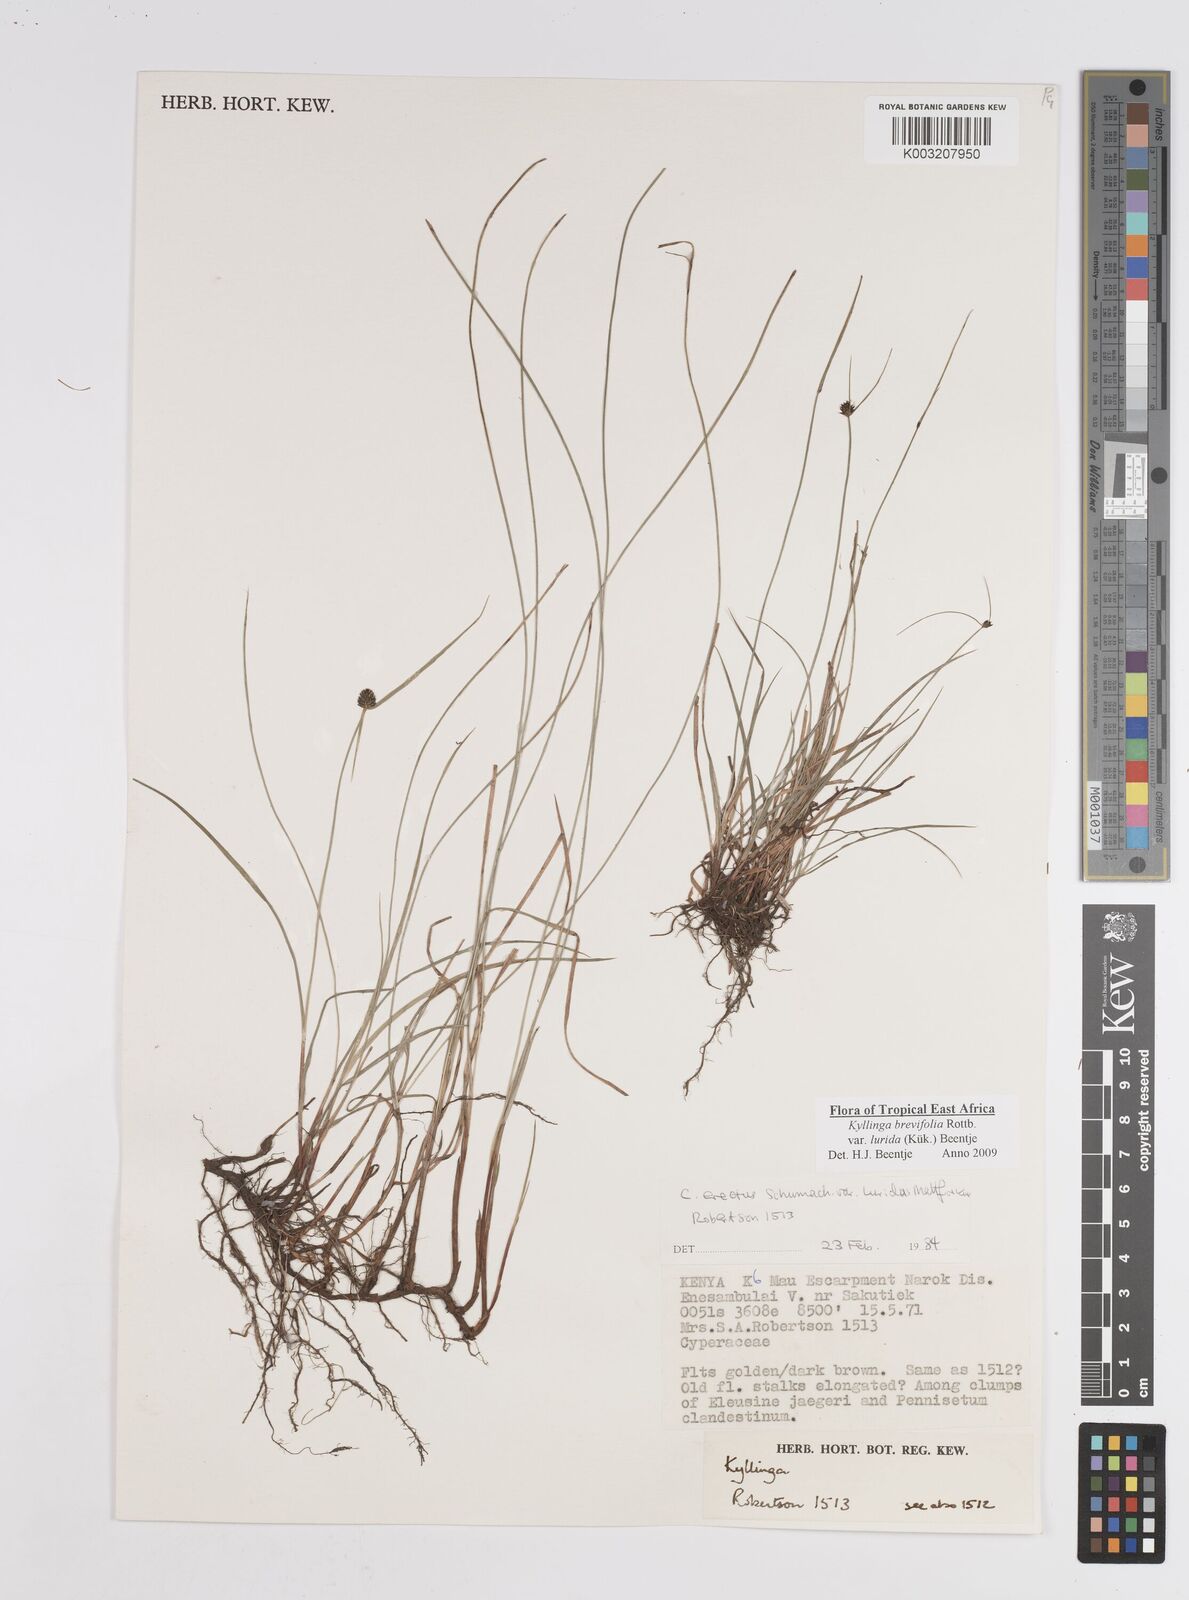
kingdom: Plantae
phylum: Tracheophyta
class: Liliopsida
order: Poales
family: Cyperaceae
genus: Cyperus
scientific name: Cyperus erectus
